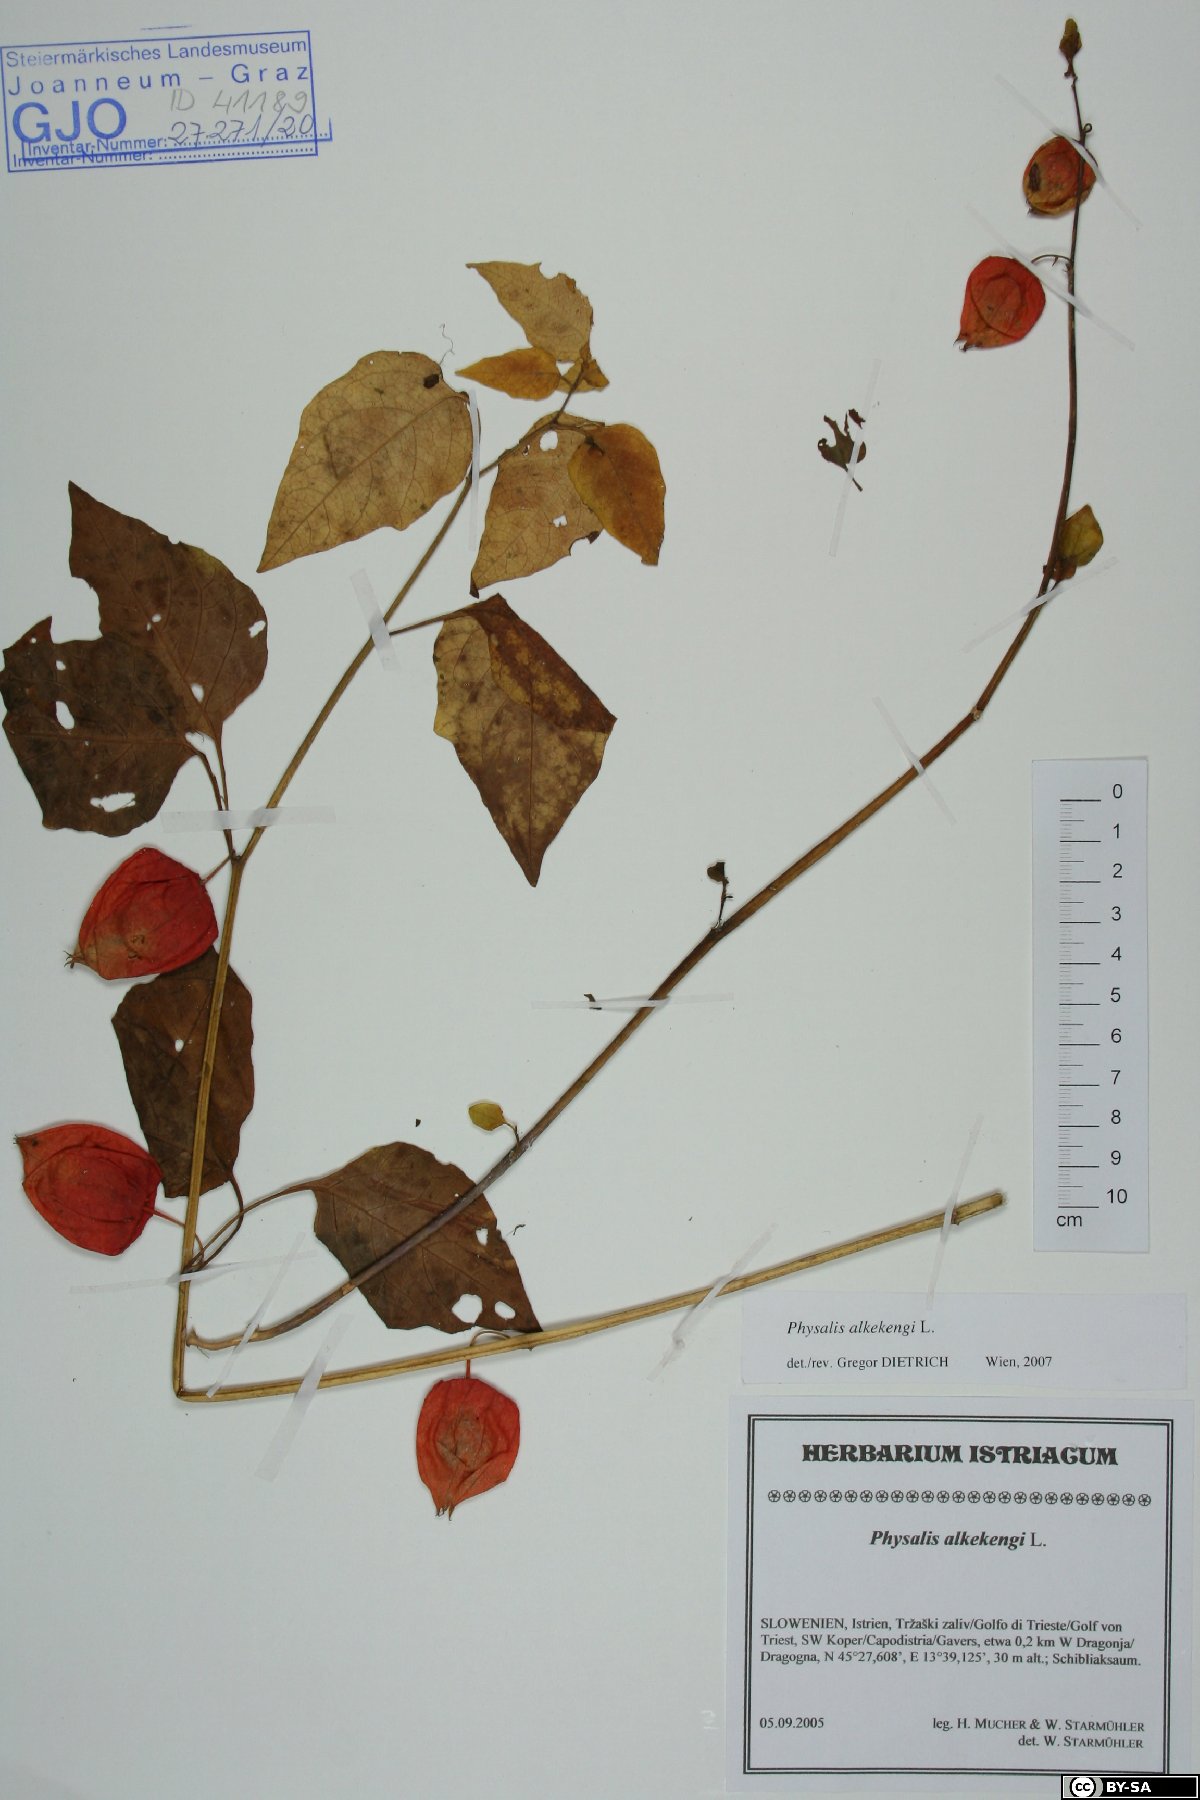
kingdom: Plantae
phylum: Tracheophyta
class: Magnoliopsida
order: Solanales
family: Solanaceae
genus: Alkekengi
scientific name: Alkekengi officinarum
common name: Japanese-lantern
